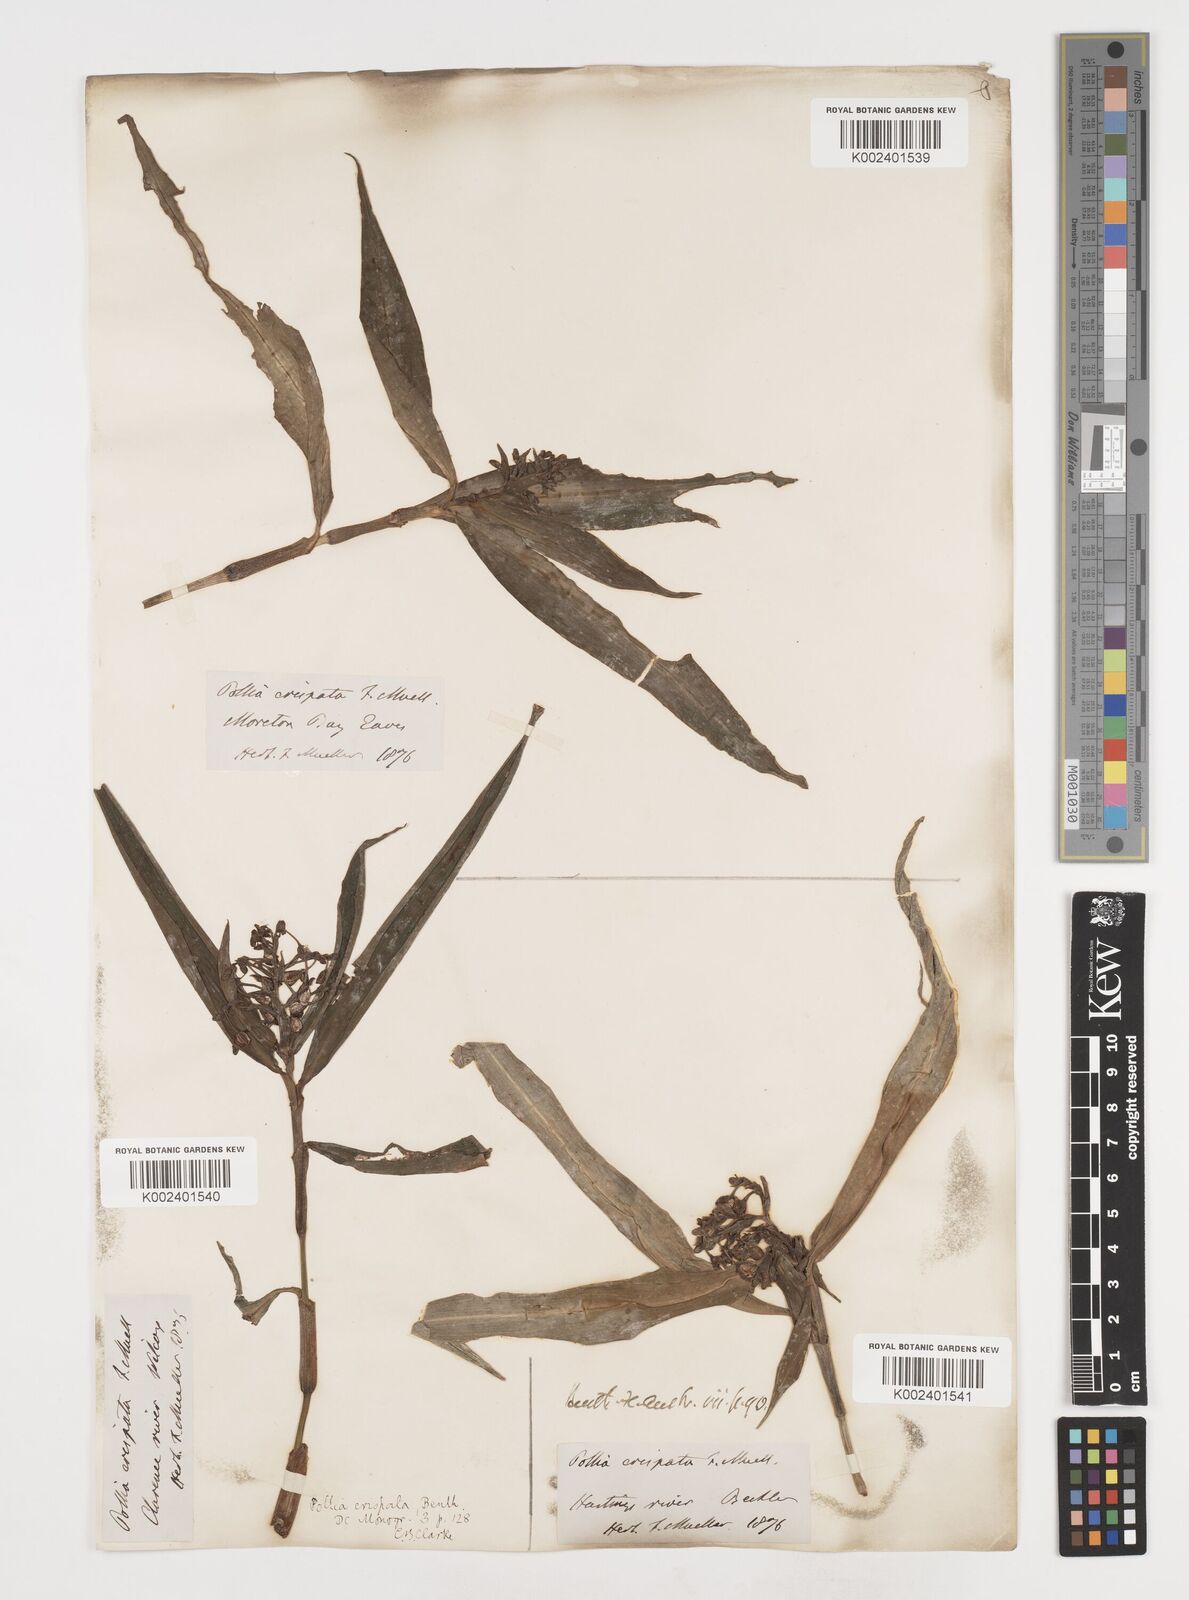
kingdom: Plantae
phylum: Tracheophyta
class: Liliopsida
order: Commelinales
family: Commelinaceae
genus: Pollia
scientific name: Pollia crispata
